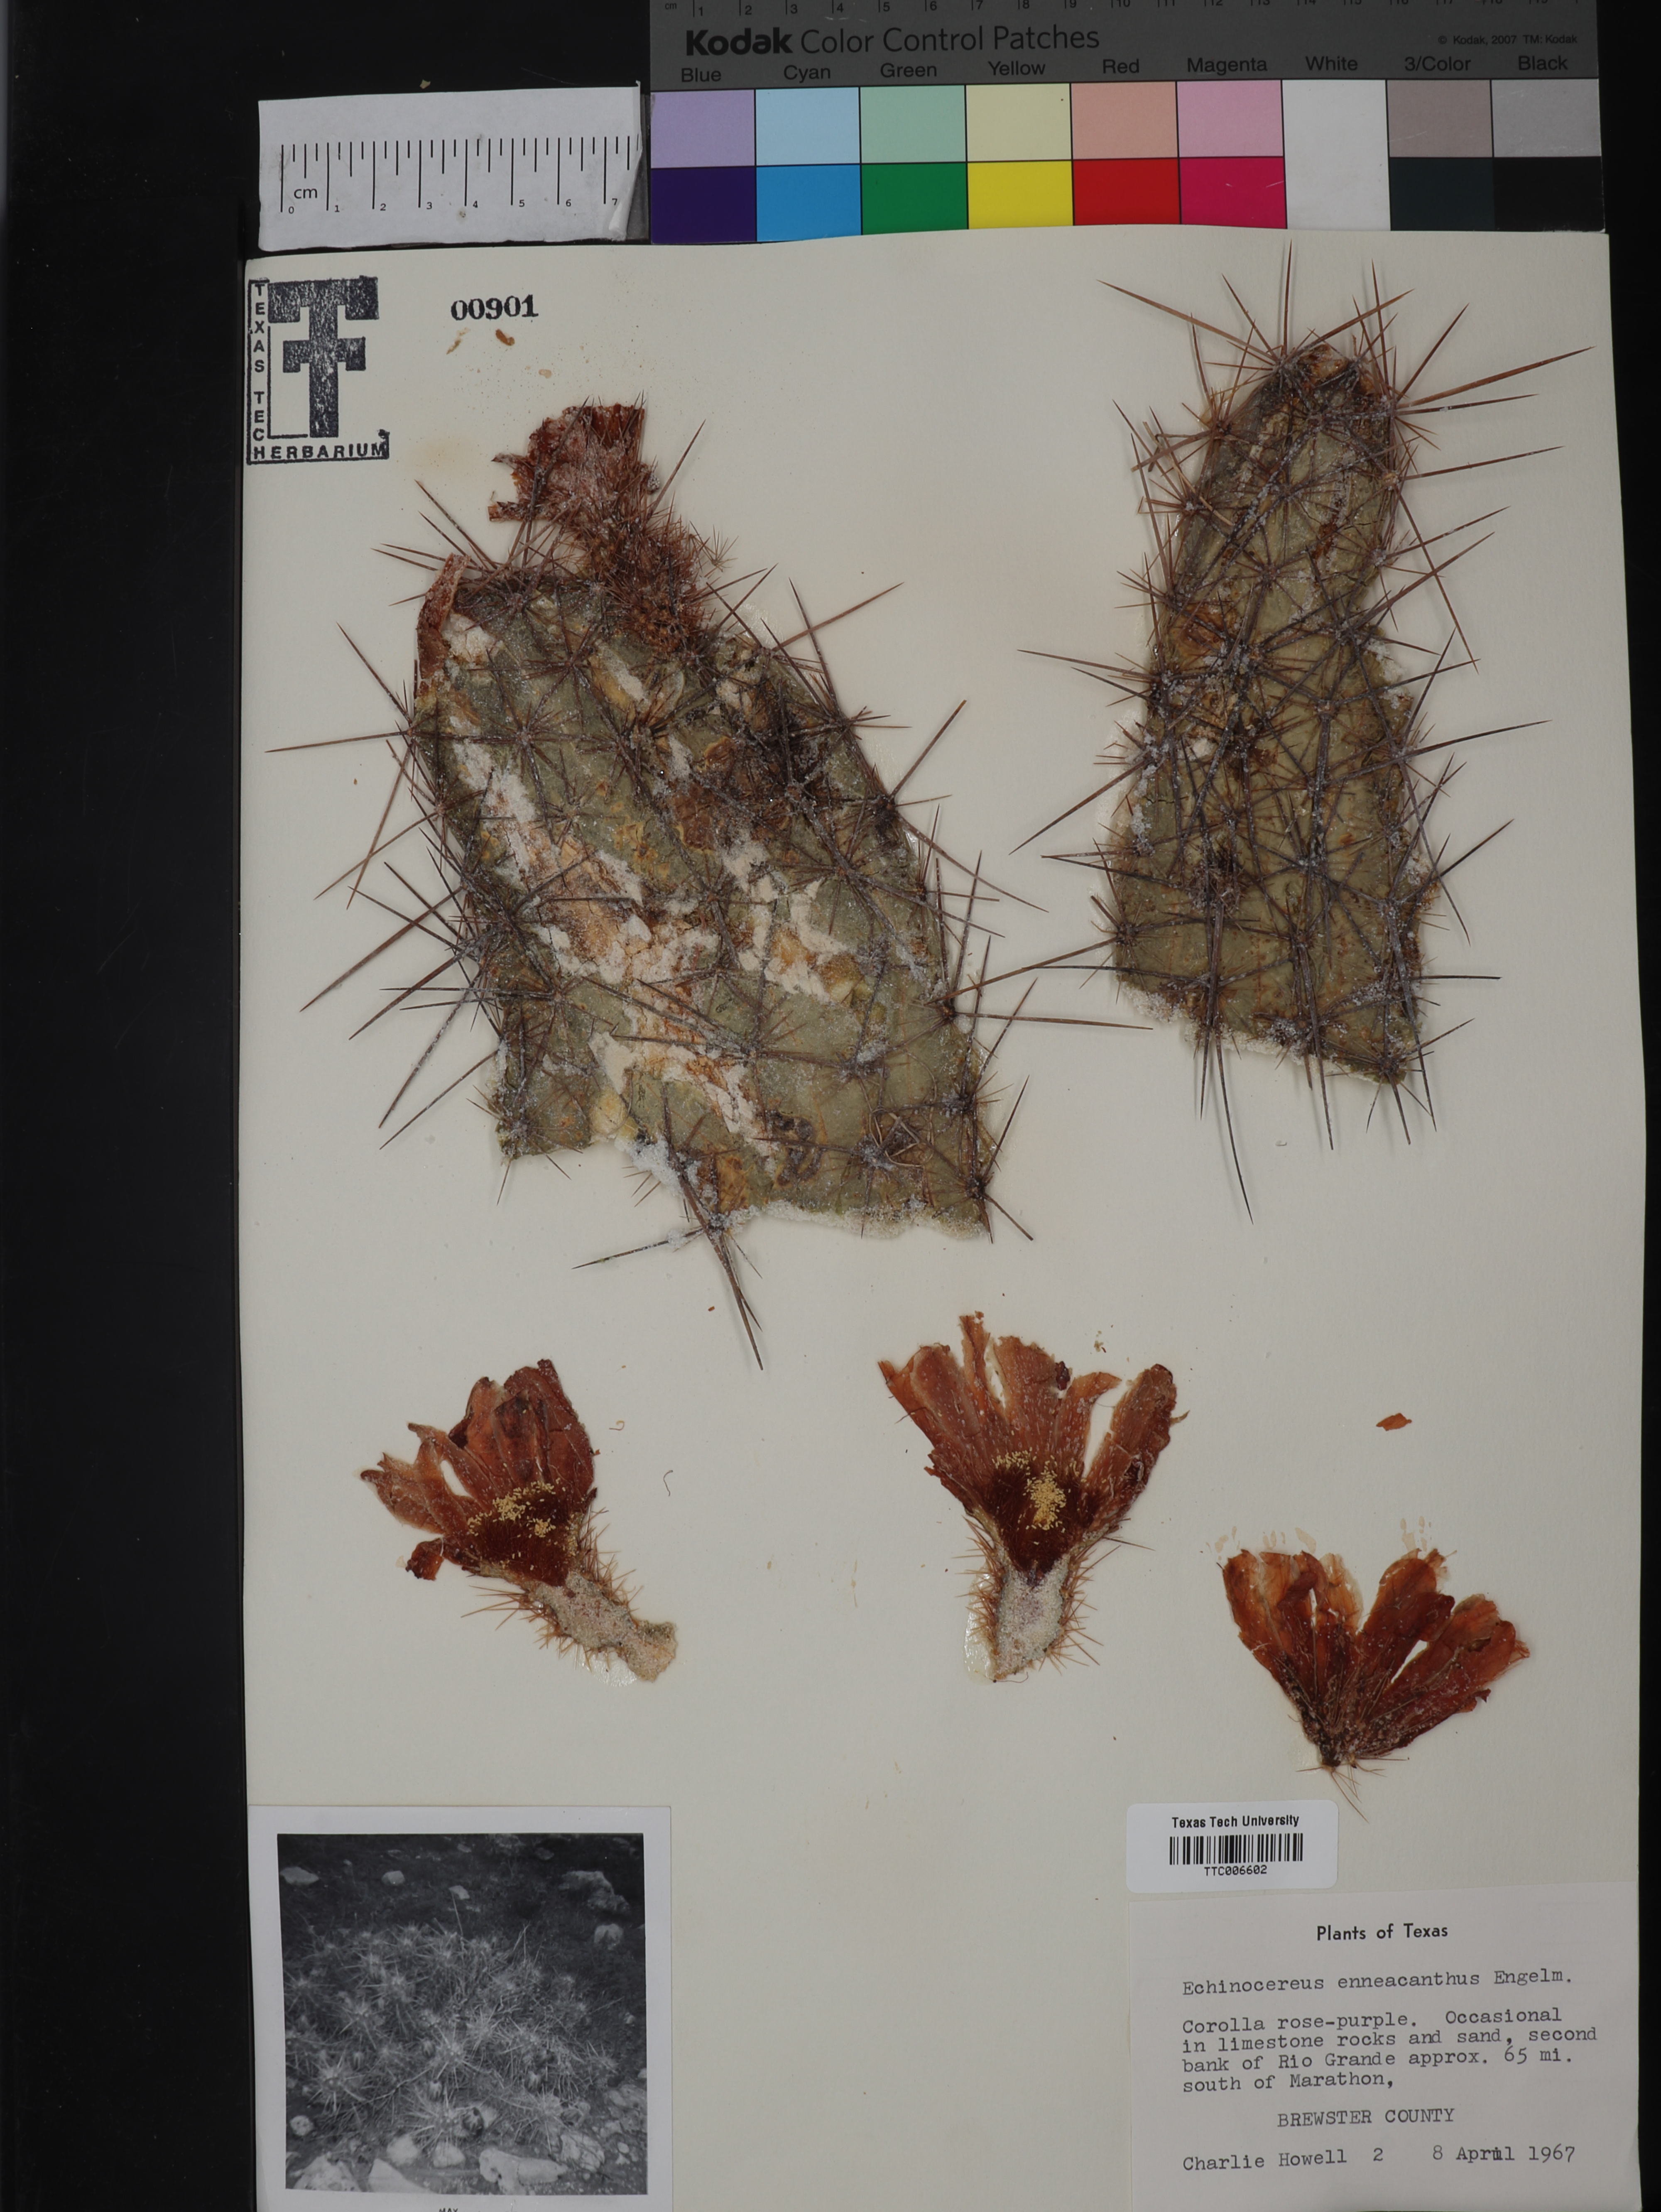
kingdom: Plantae
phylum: Tracheophyta
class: Magnoliopsida
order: Caryophyllales
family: Cactaceae
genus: Echinocactus
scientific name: Echinocactus
